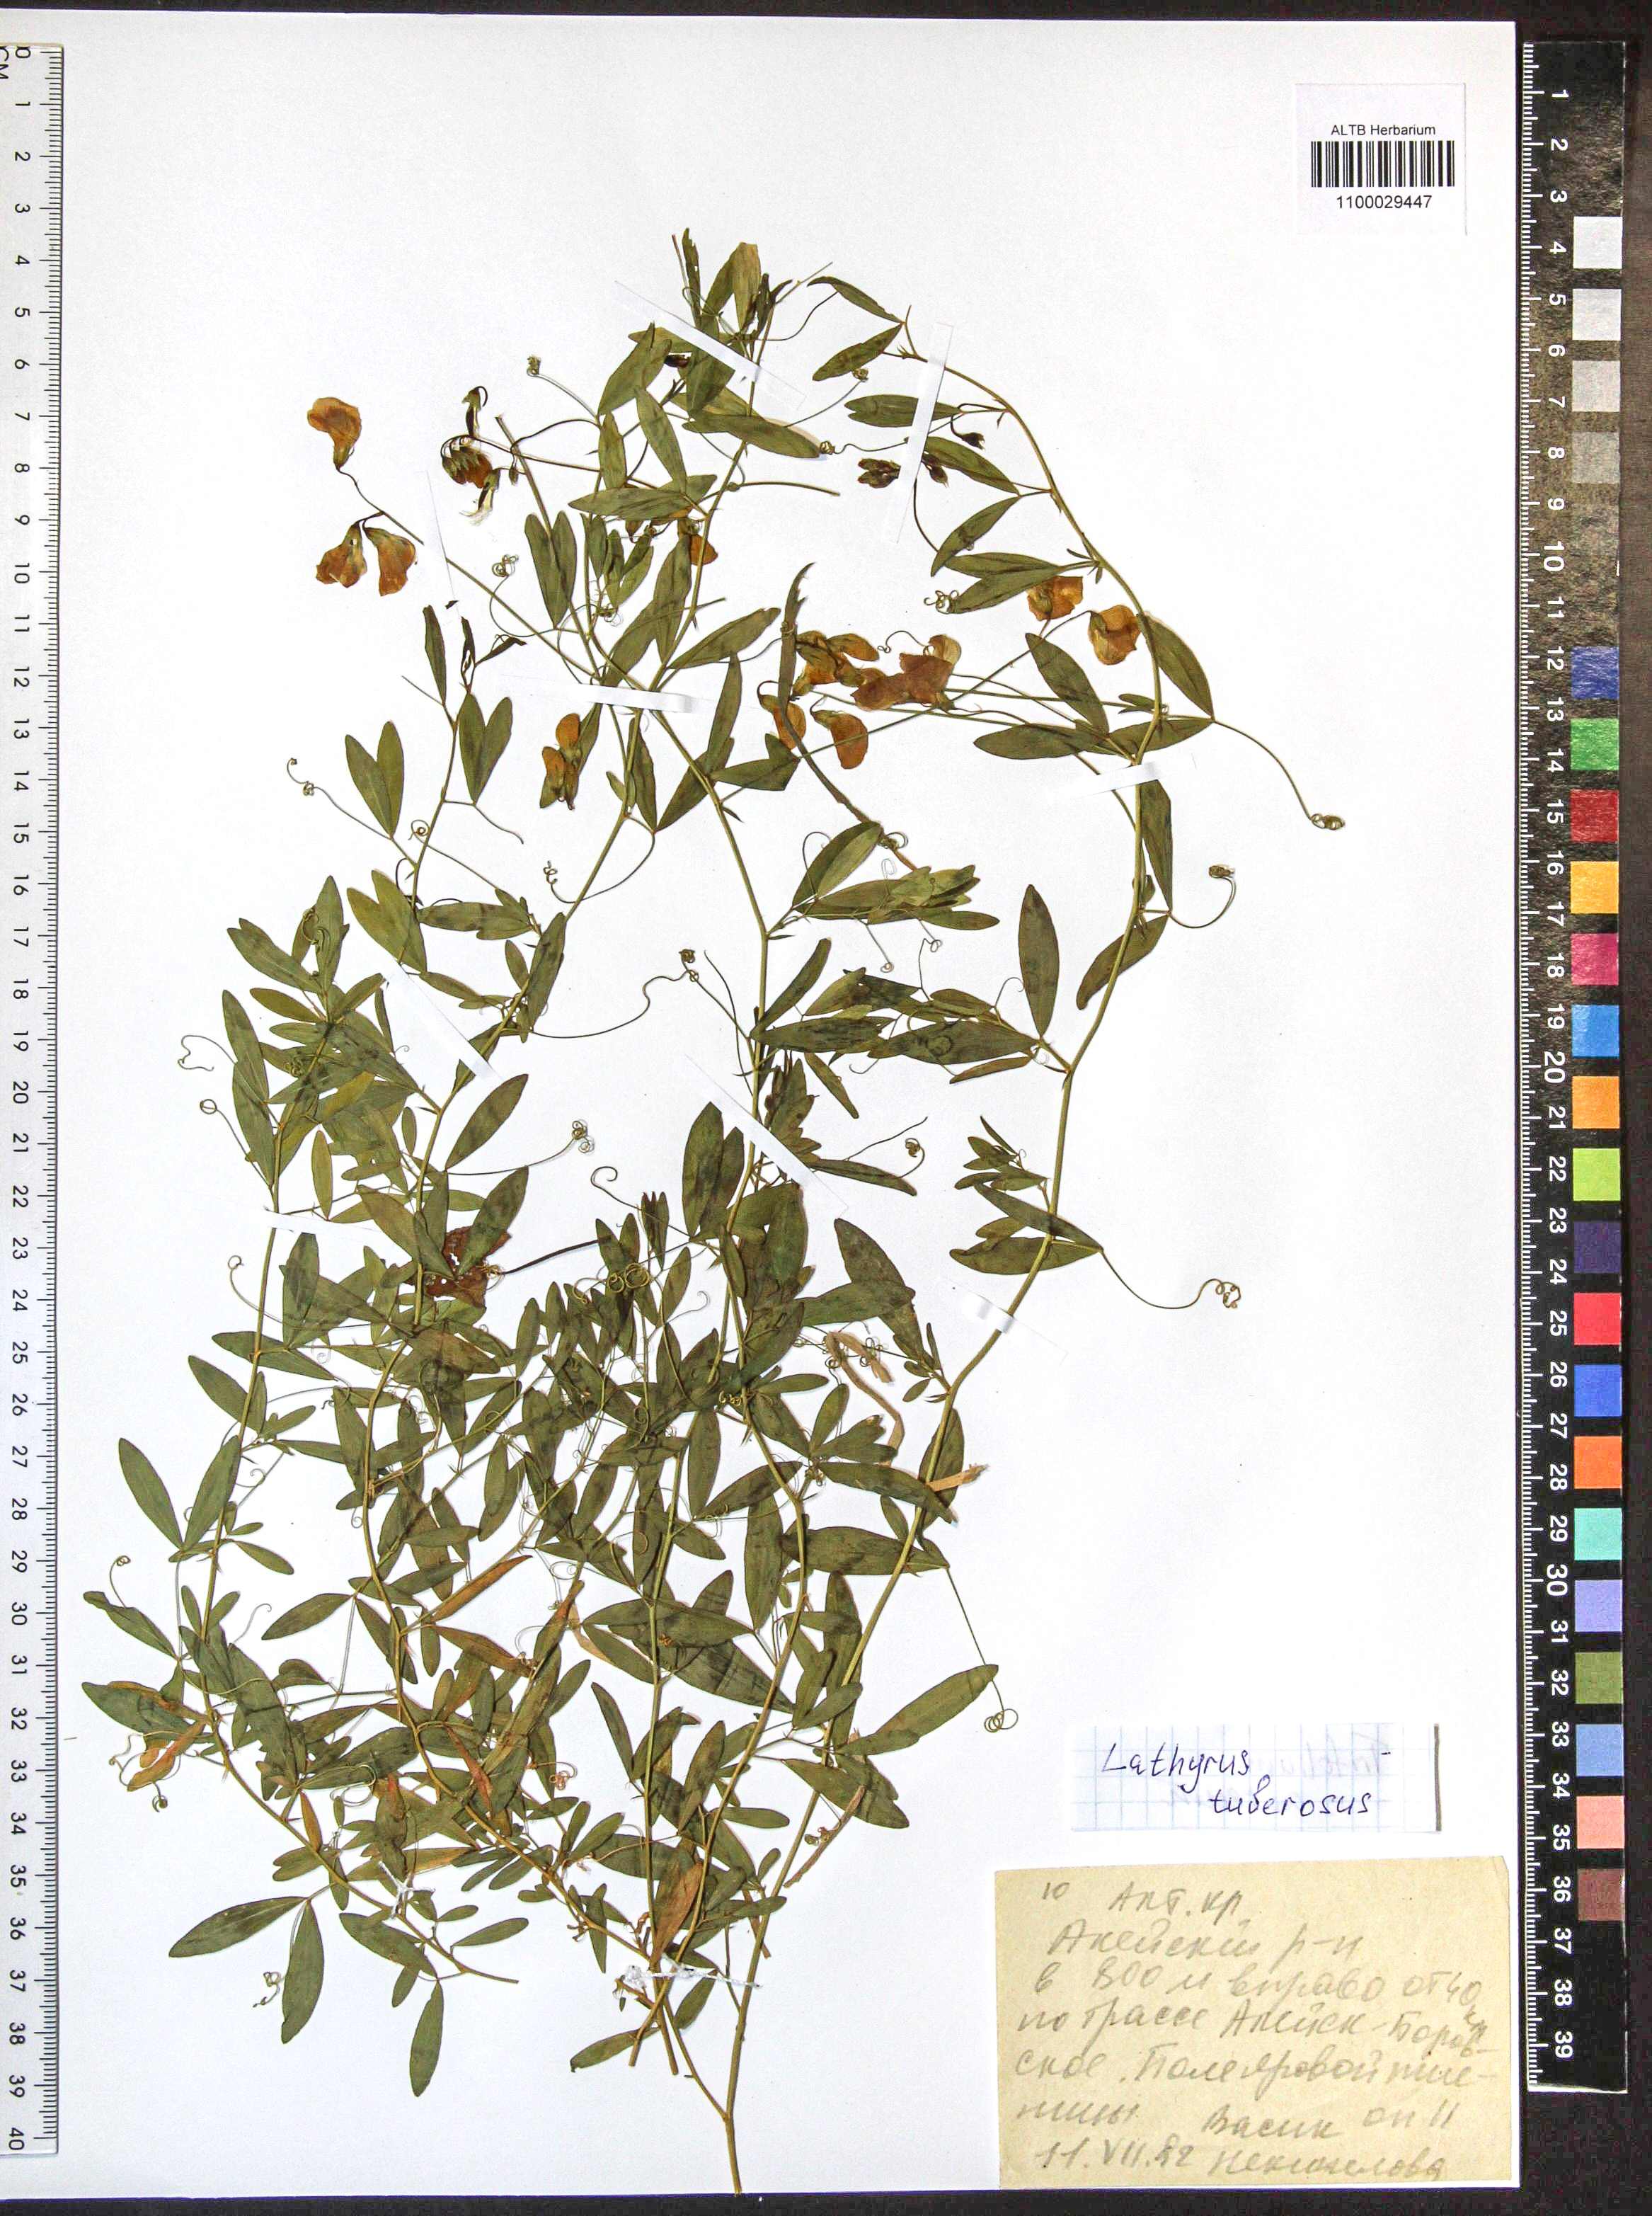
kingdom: Plantae
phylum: Tracheophyta
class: Magnoliopsida
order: Fabales
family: Fabaceae
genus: Lathyrus
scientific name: Lathyrus tuberosus
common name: Tuberous pea
